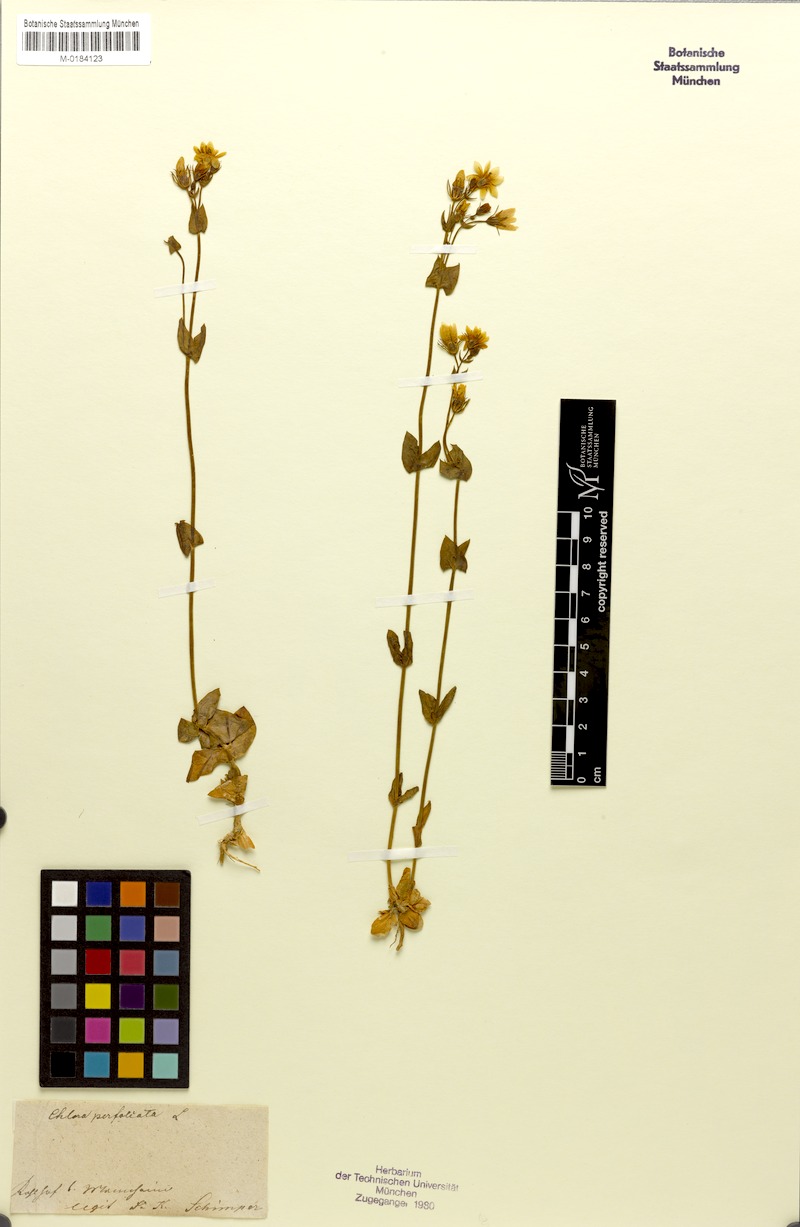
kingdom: Plantae
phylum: Tracheophyta
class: Magnoliopsida
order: Gentianales
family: Gentianaceae
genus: Blackstonia
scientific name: Blackstonia perfoliata
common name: Yellow-wort
